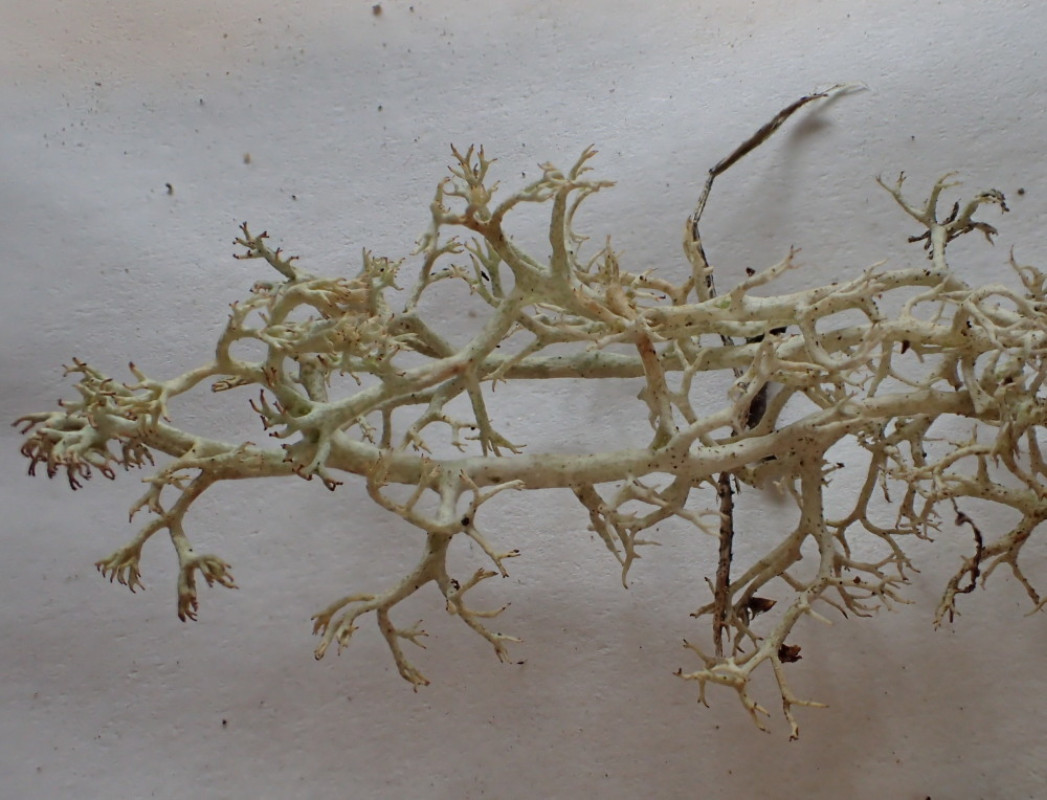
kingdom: Fungi
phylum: Ascomycota
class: Lecanoromycetes
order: Lecanorales
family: Cladoniaceae
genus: Cladonia
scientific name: Cladonia portentosa
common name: hede-rensdyrlav
